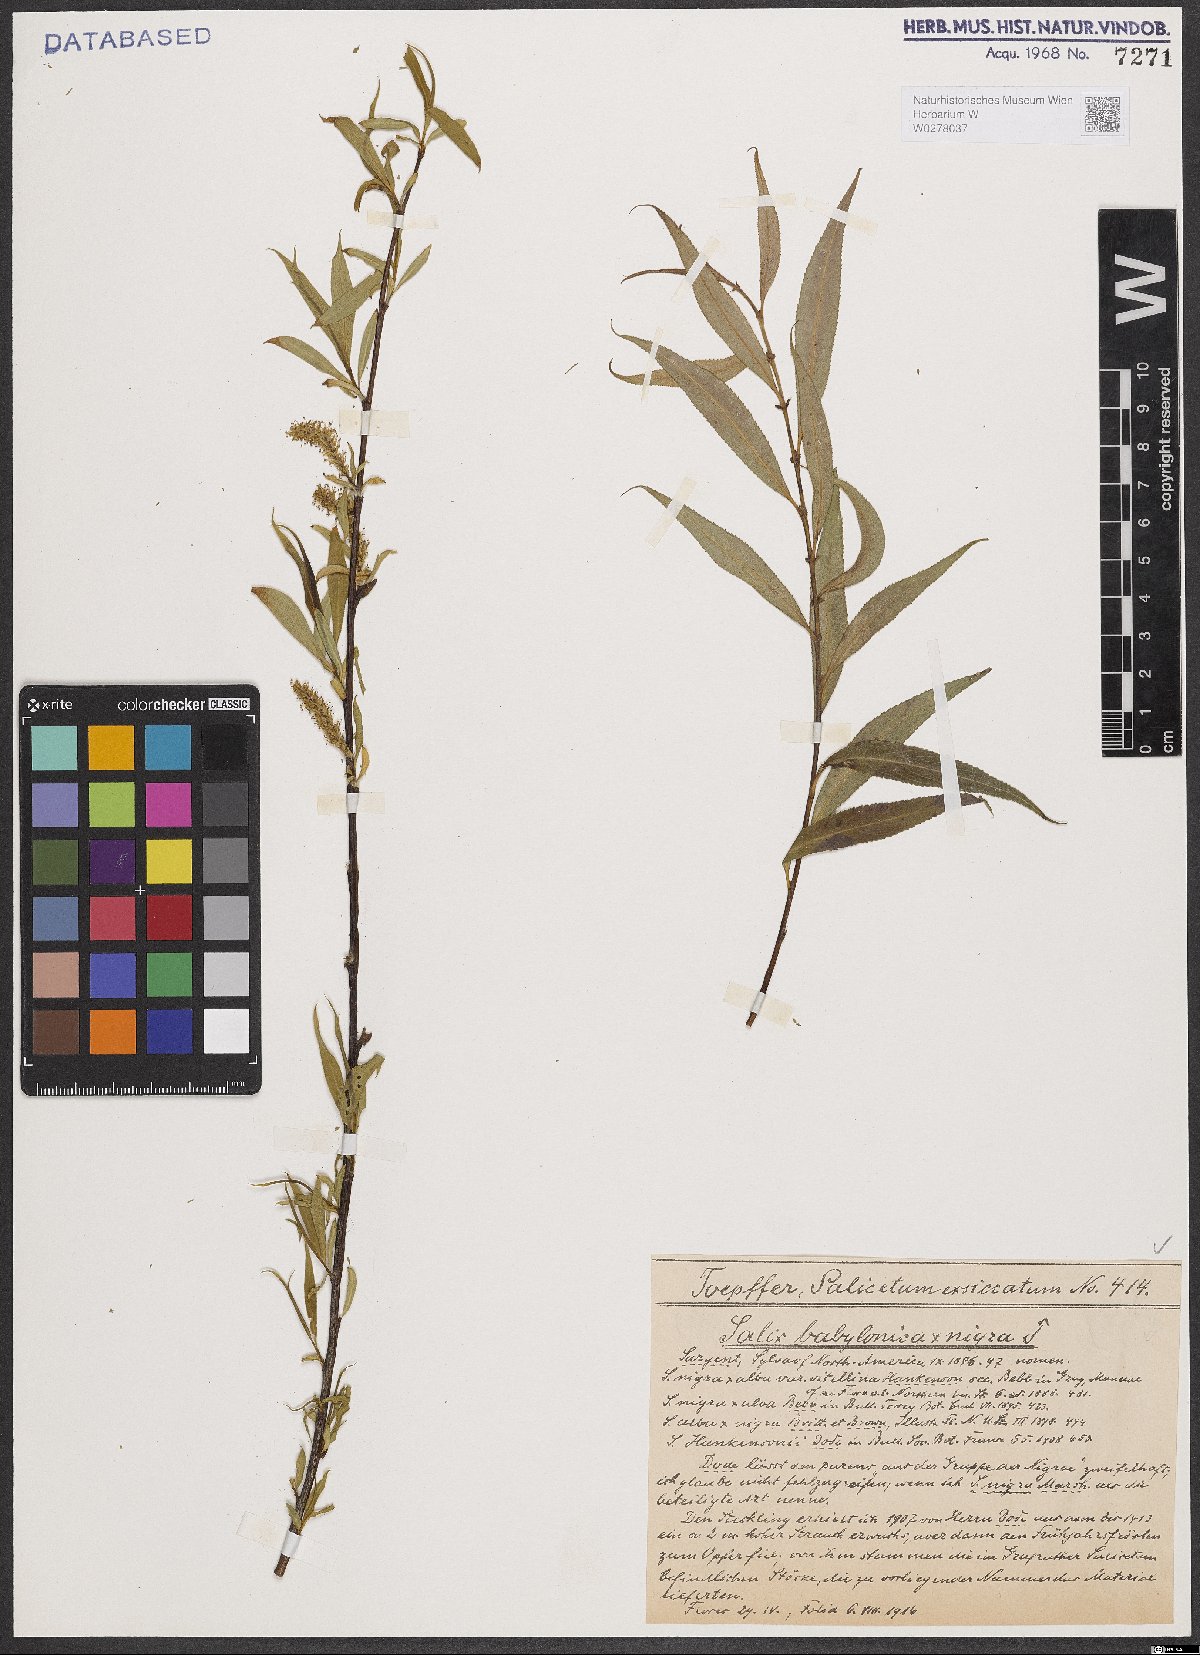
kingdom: Plantae
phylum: Tracheophyta
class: Magnoliopsida
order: Malpighiales
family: Salicaceae
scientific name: Salicaceae
